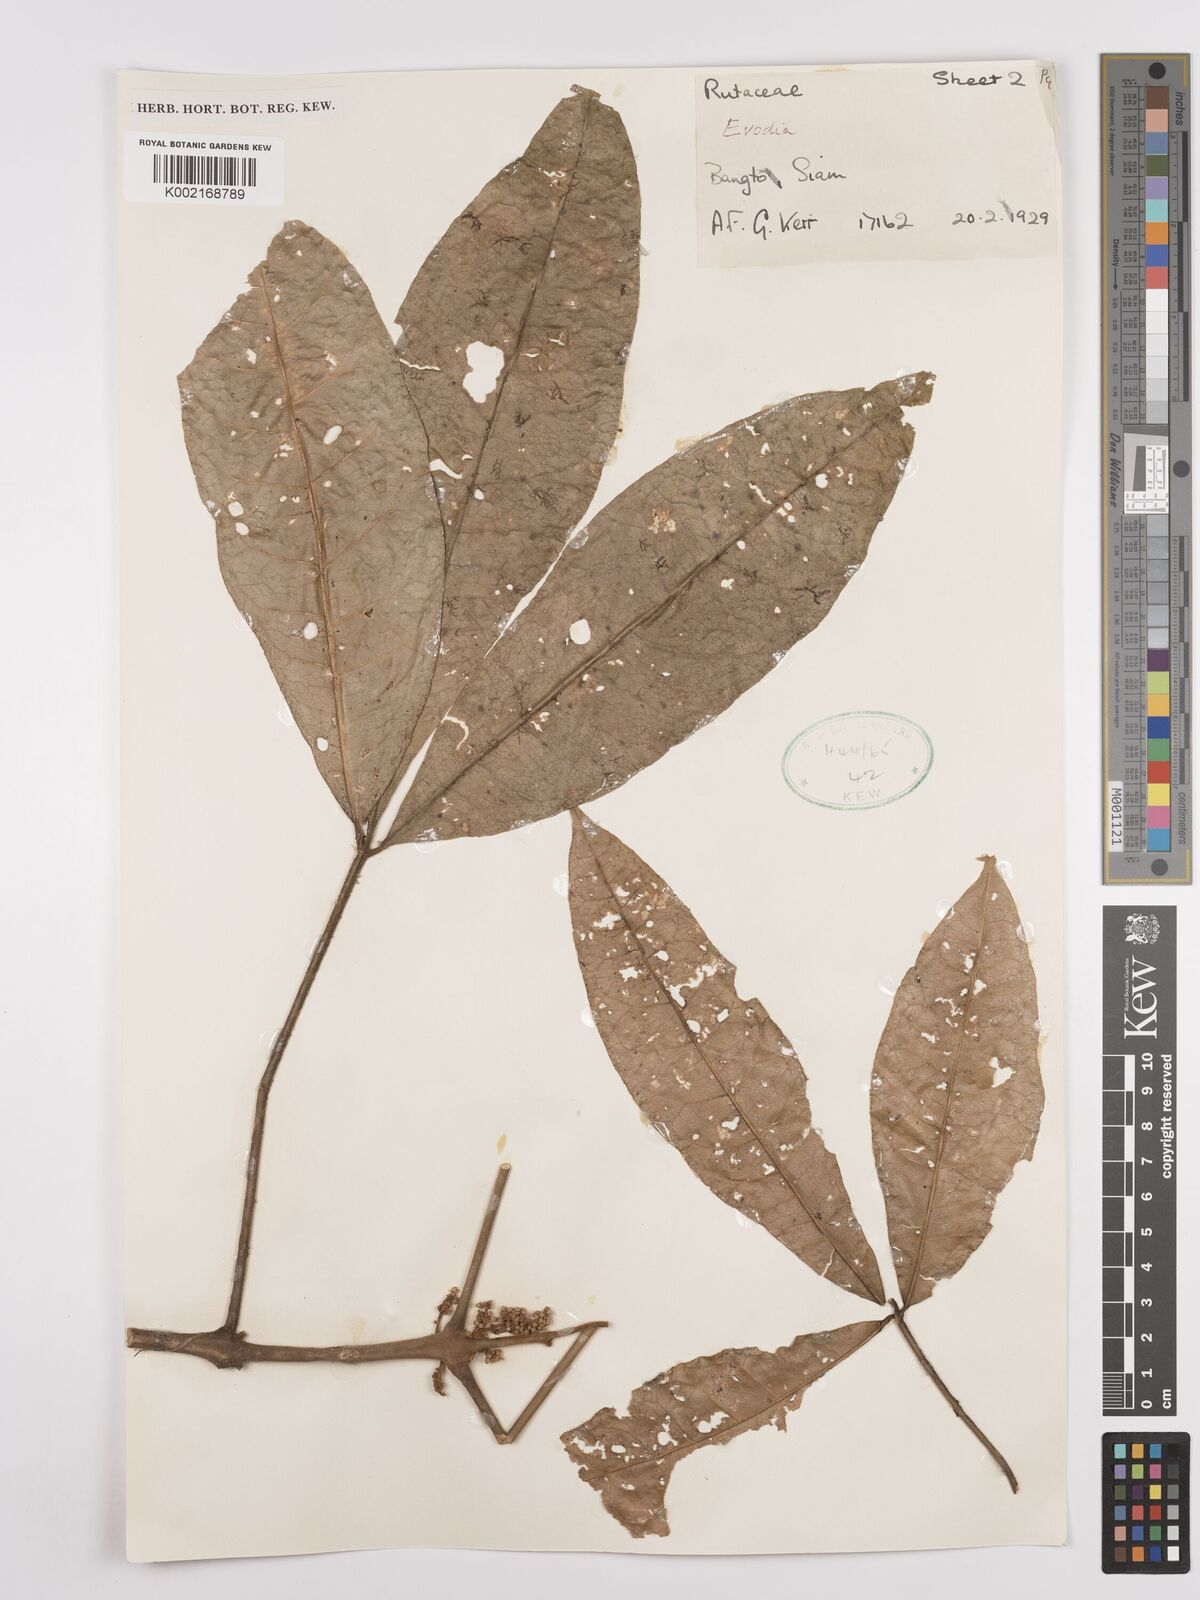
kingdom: Plantae
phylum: Tracheophyta
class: Magnoliopsida
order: Sapindales
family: Rutaceae
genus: Euodia
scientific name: Euodia
